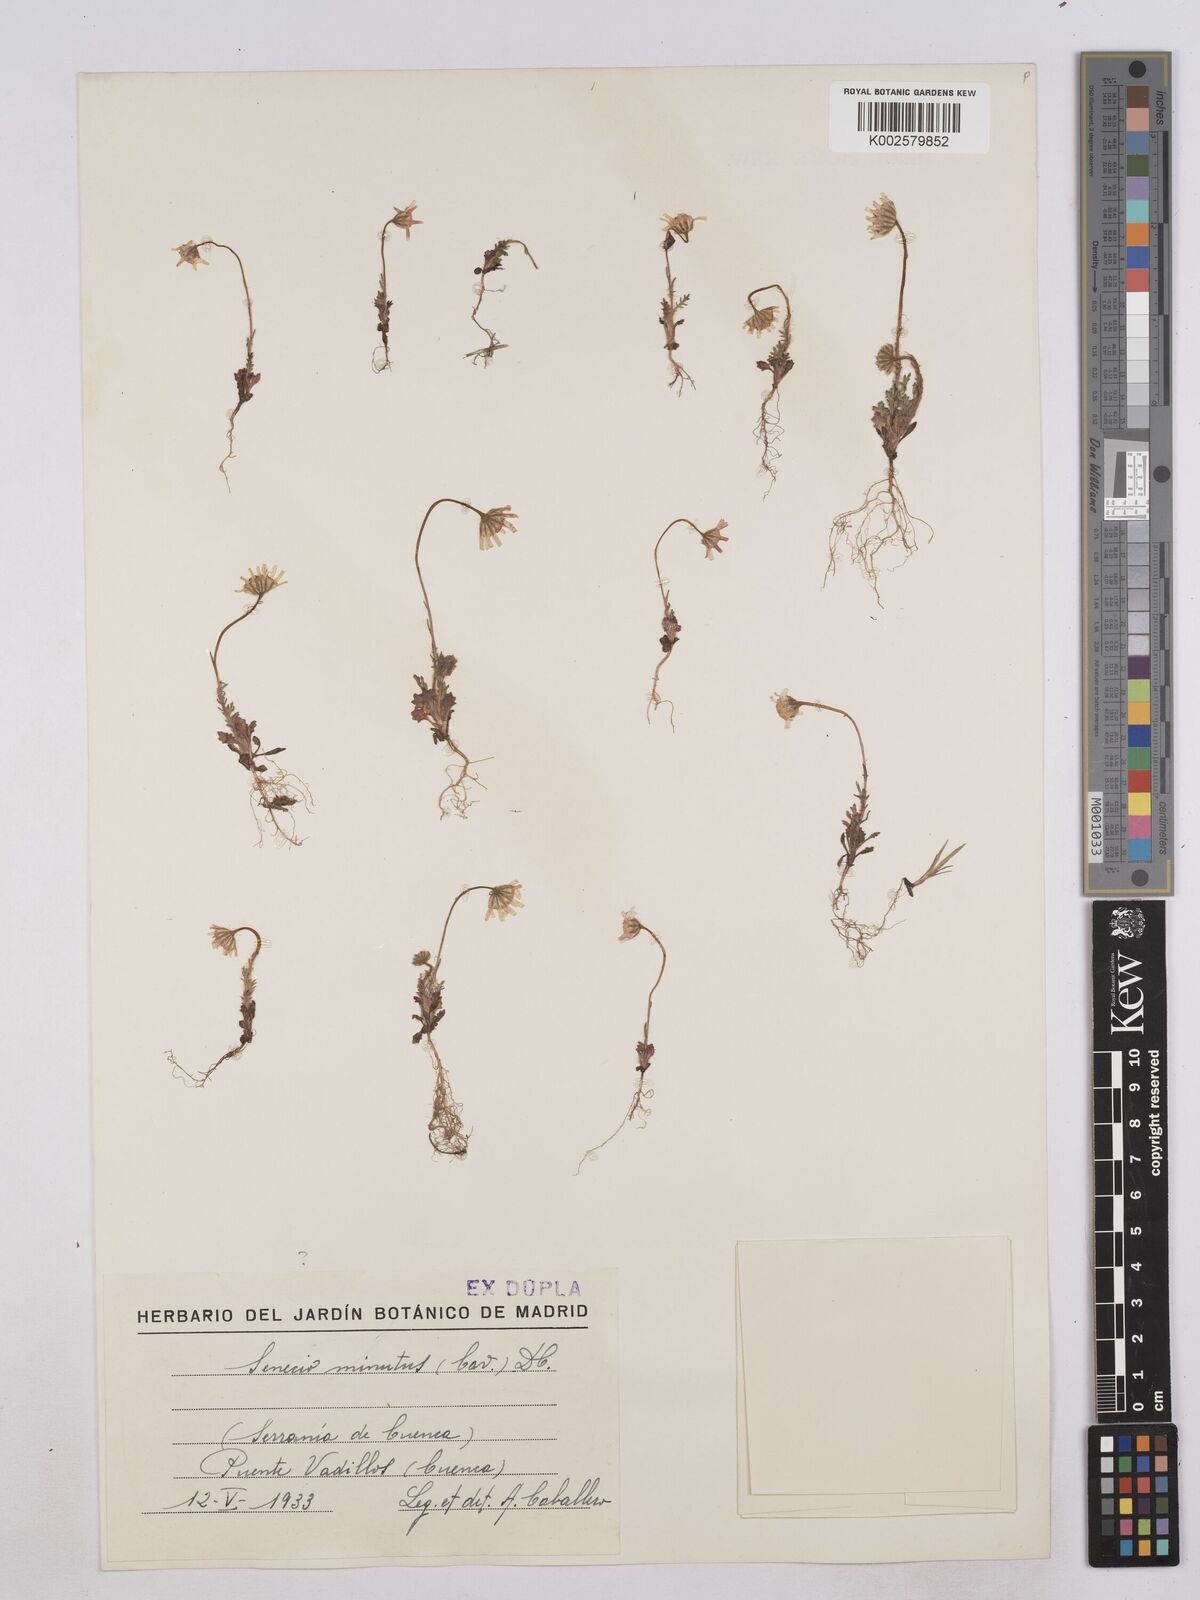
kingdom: Plantae
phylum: Tracheophyta
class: Magnoliopsida
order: Asterales
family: Asteraceae
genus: Jacobaea
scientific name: Jacobaea minuta
